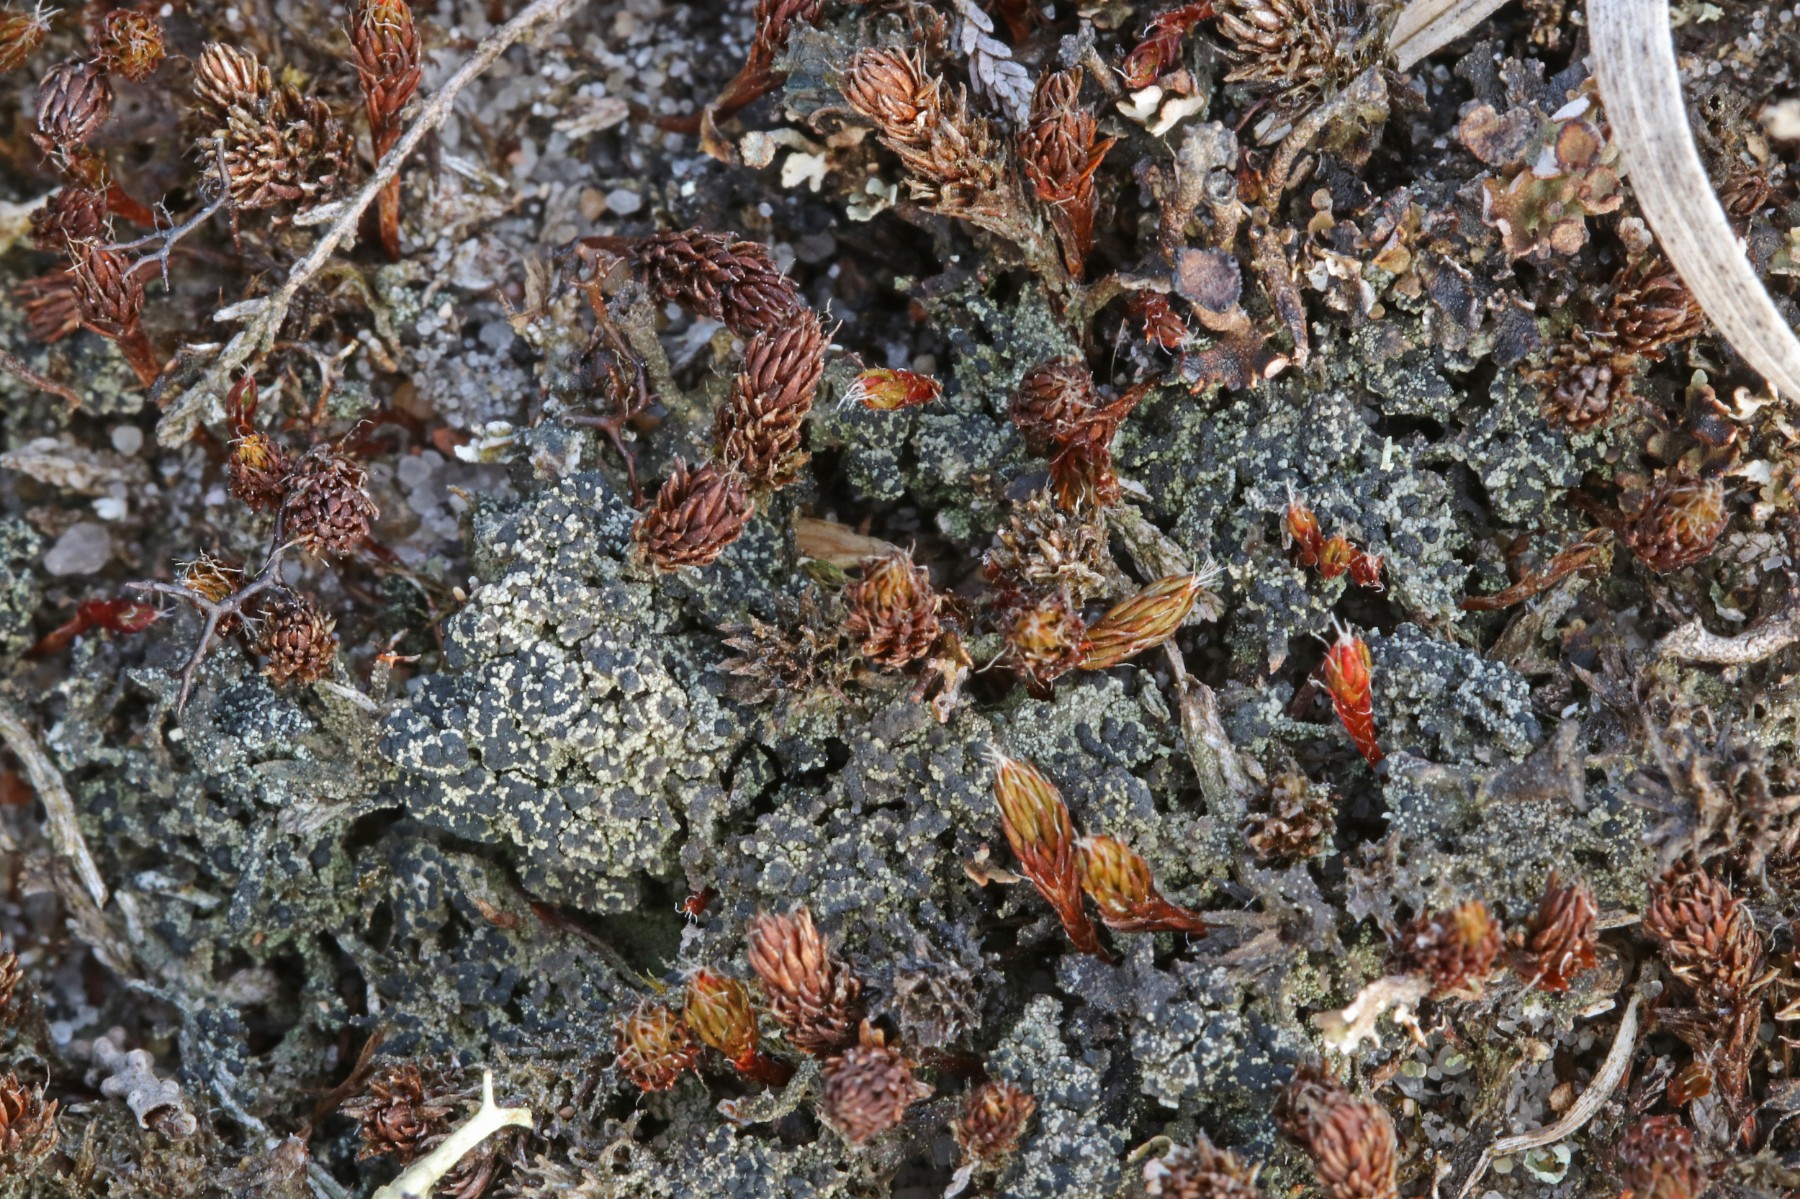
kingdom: Fungi
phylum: Ascomycota
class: Lecanoromycetes
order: Lecanorales
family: Byssolomataceae
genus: Micarea
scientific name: Micarea lignaria
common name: tørve-knaplav
